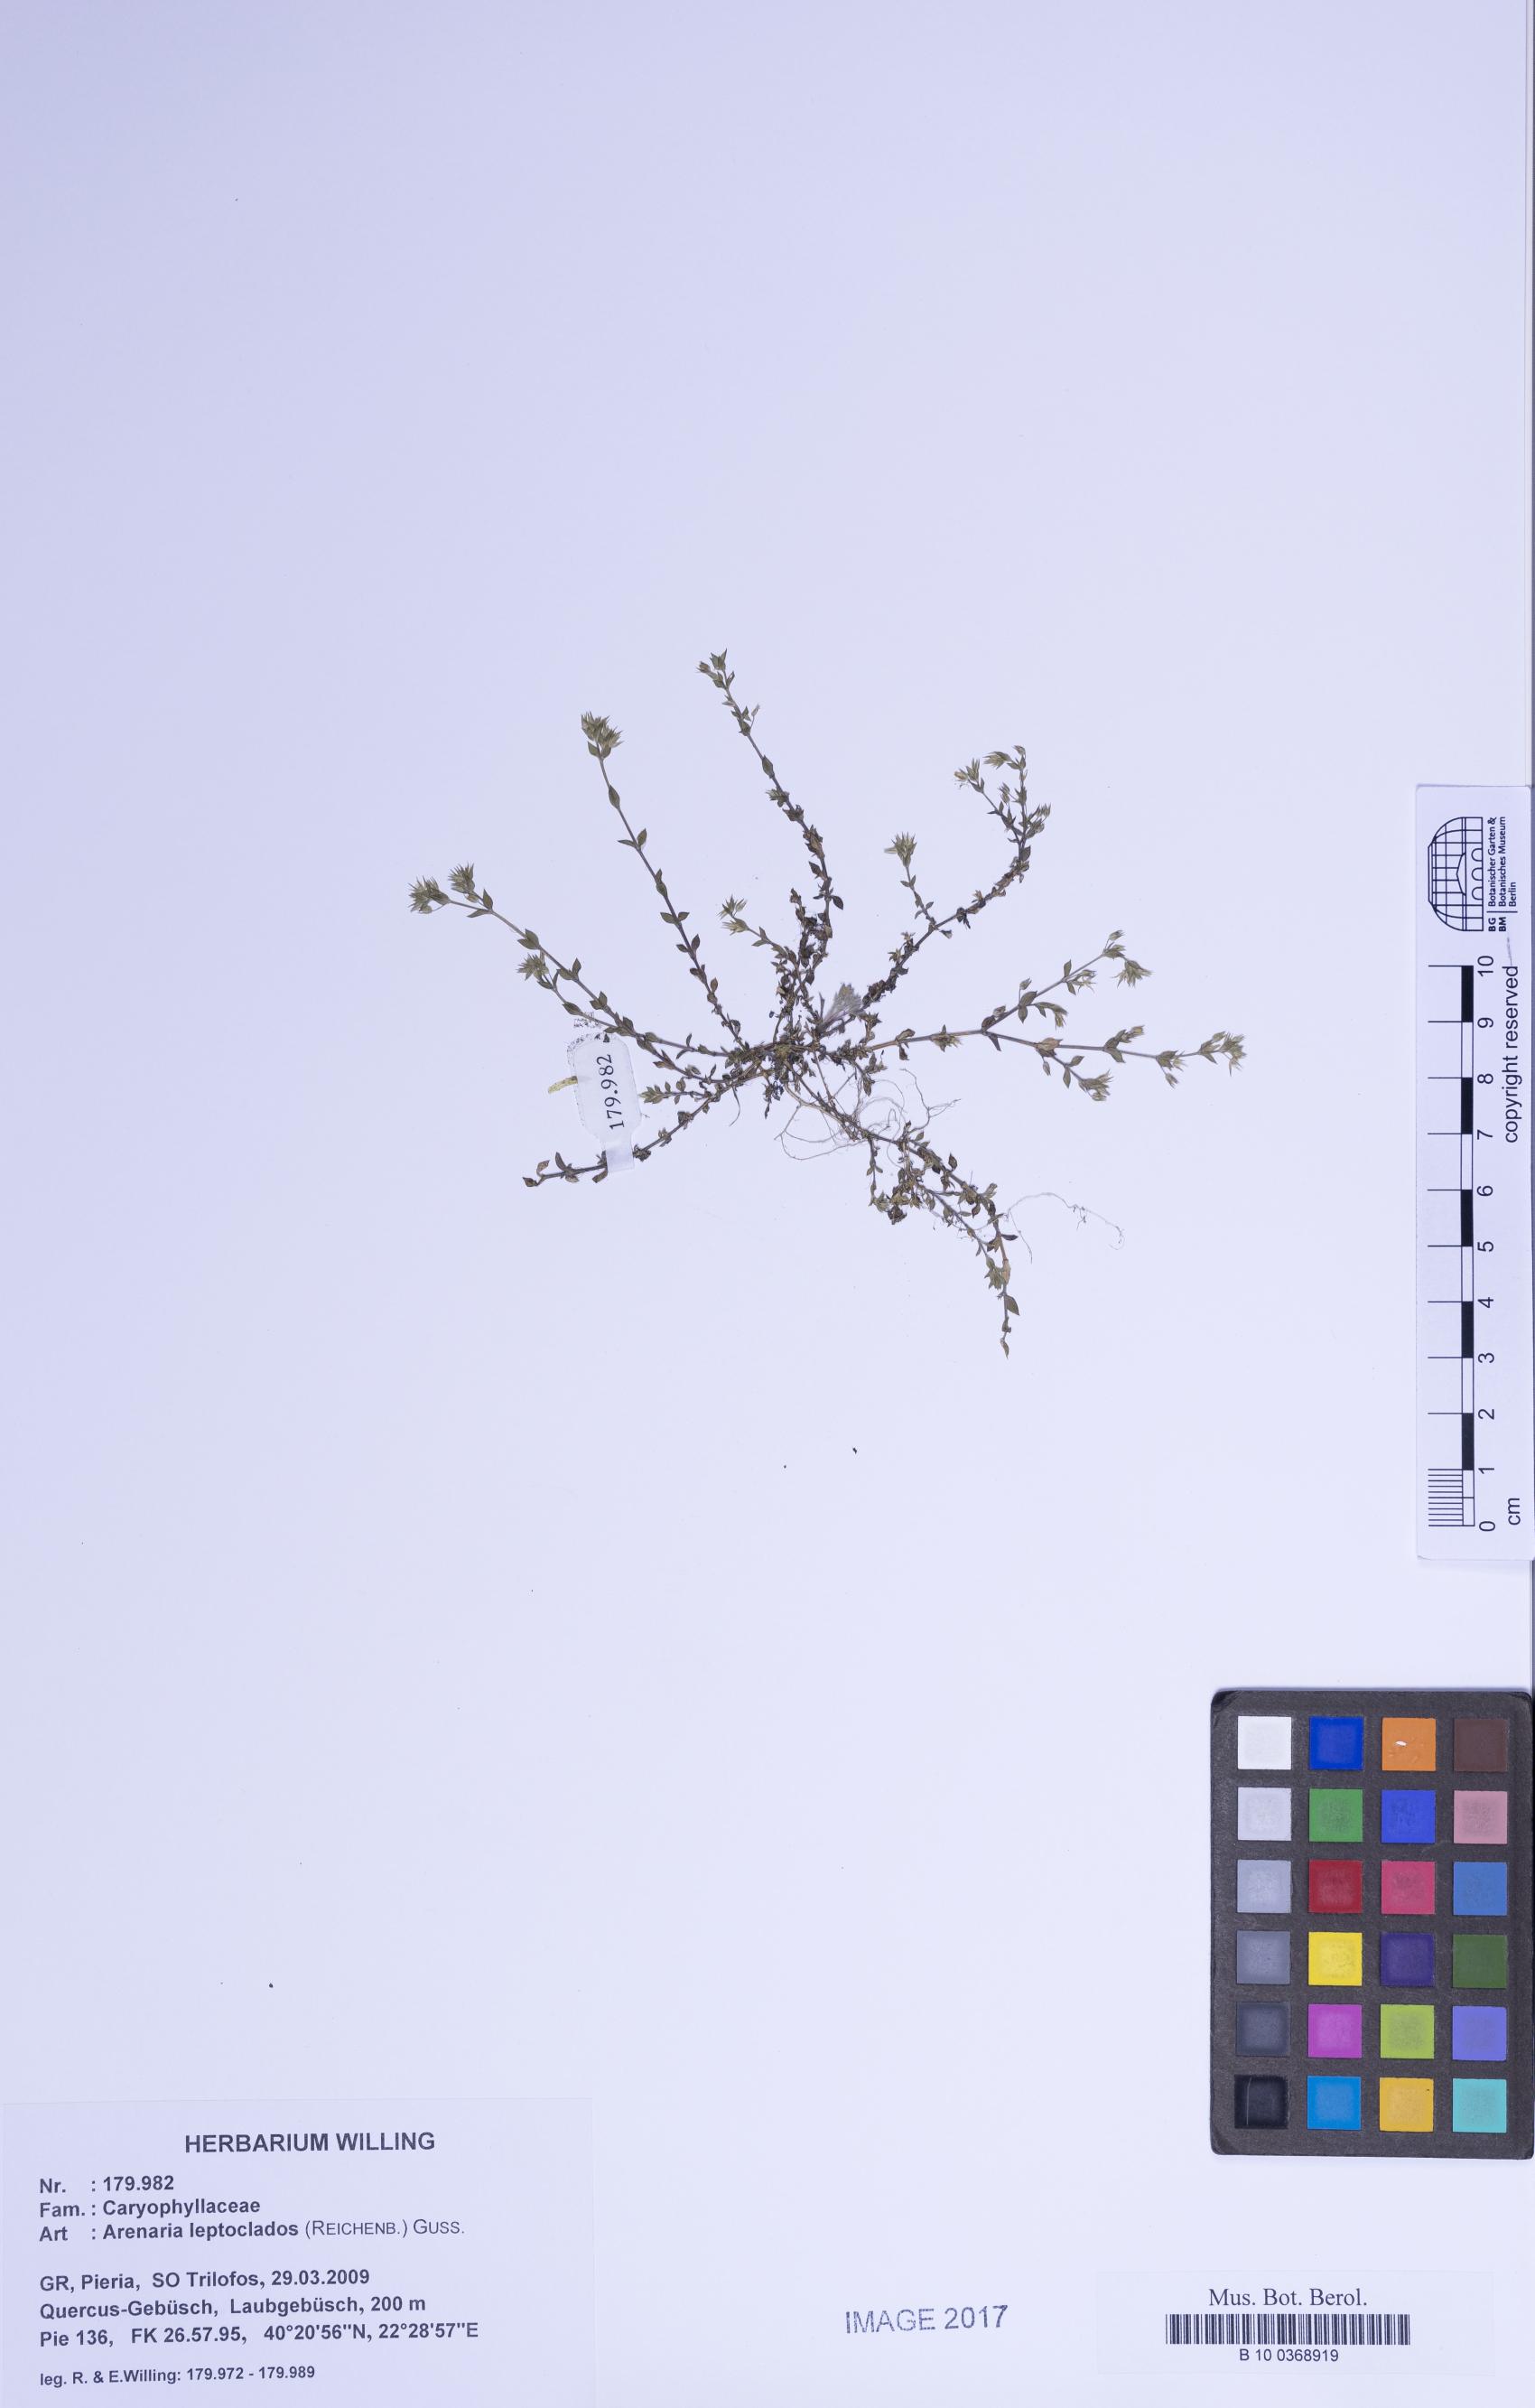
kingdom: Plantae
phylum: Tracheophyta
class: Magnoliopsida
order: Caryophyllales
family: Caryophyllaceae
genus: Arenaria
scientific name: Arenaria leptoclados
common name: Thyme-leaved sandwort
